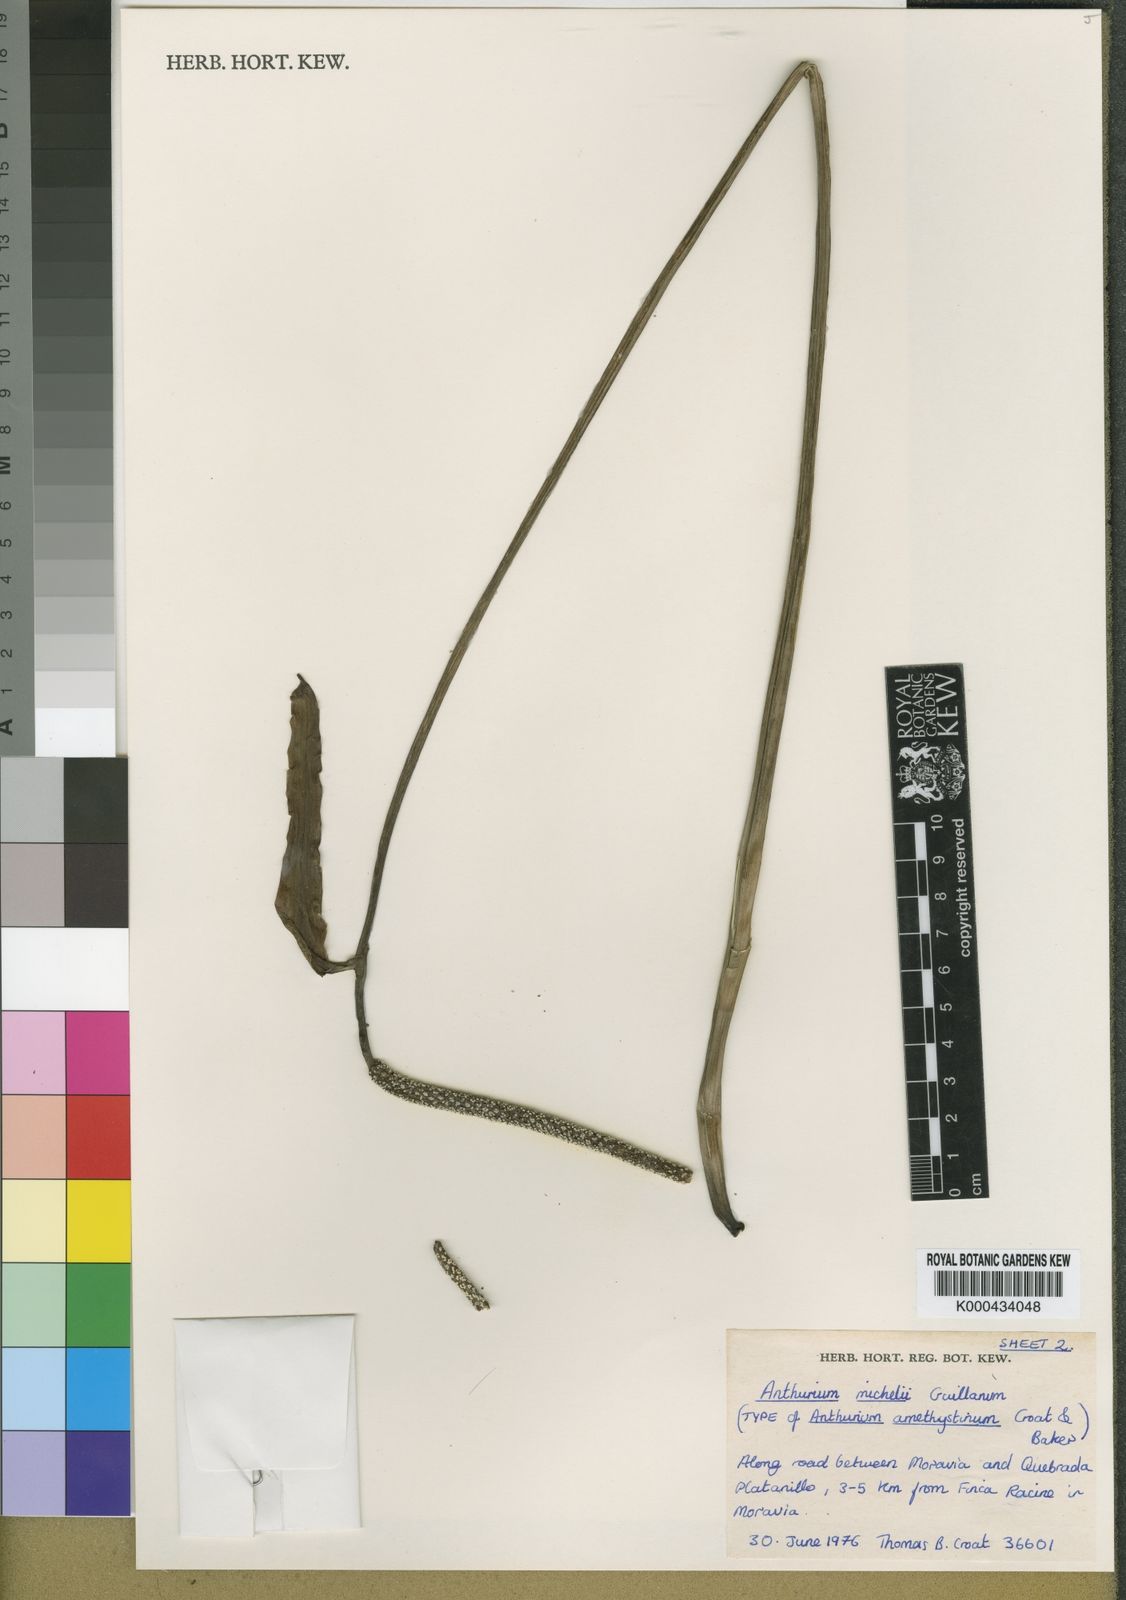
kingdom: Plantae
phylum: Tracheophyta
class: Liliopsida
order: Alismatales
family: Araceae
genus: Anthurium
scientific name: Anthurium michelii
